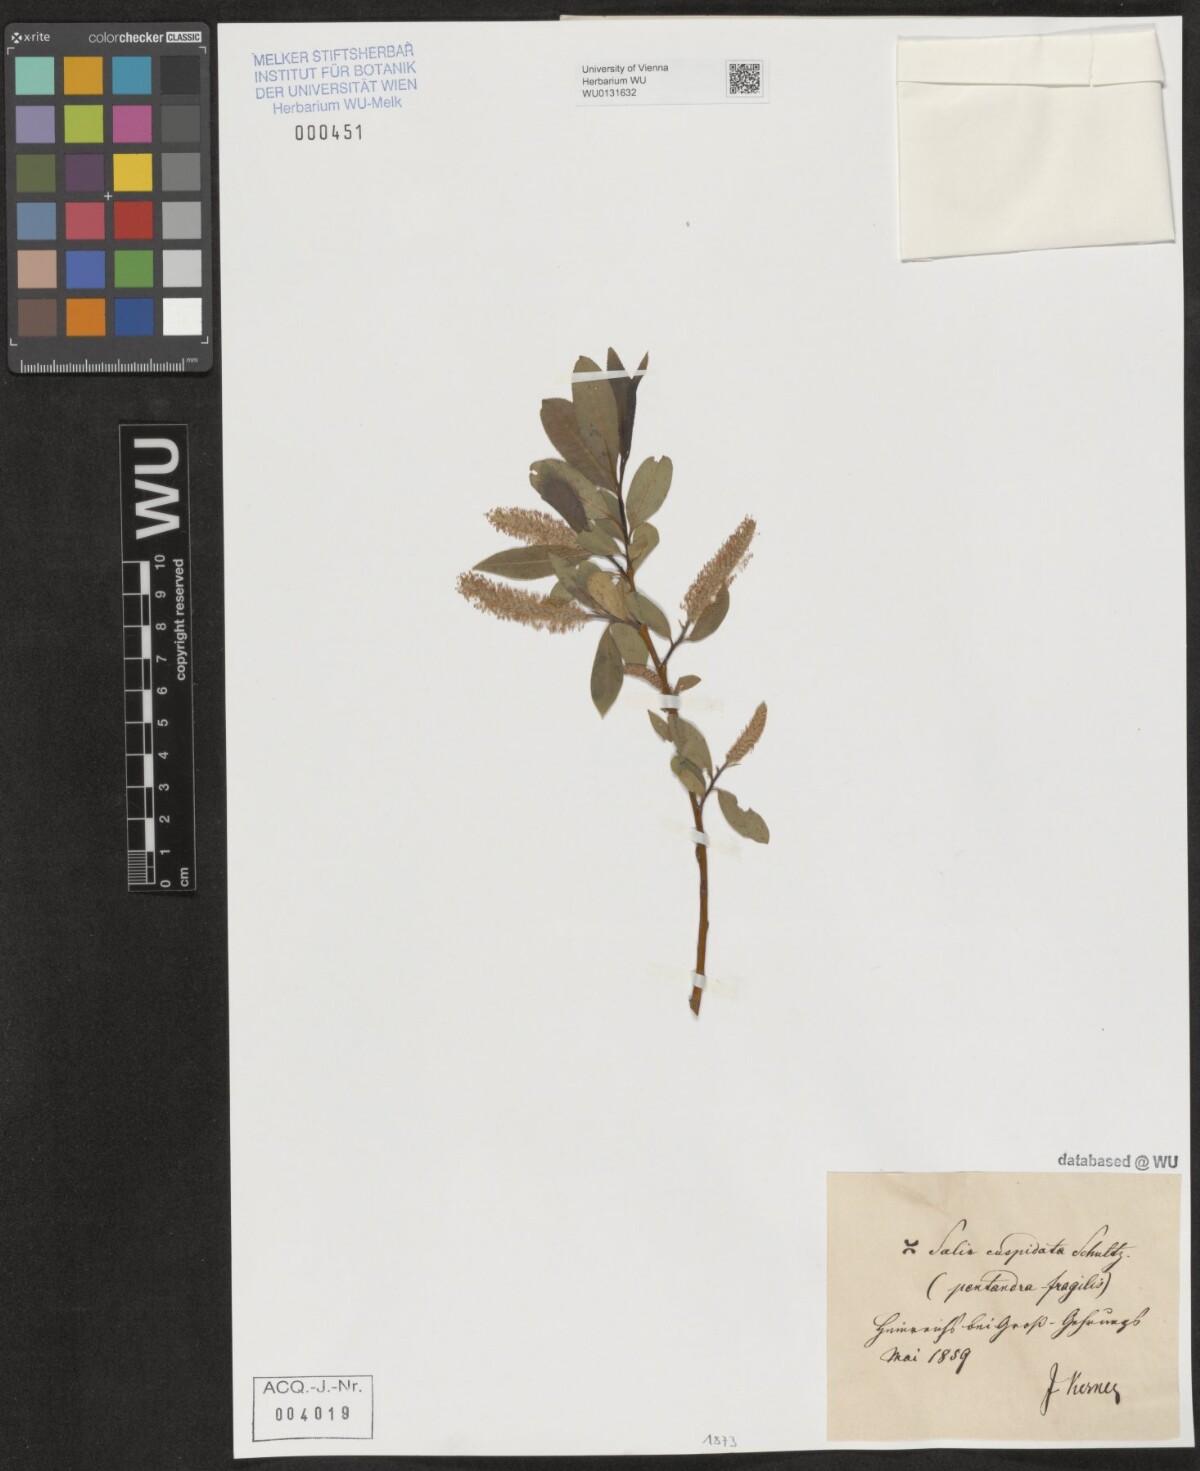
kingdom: Plantae
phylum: Tracheophyta
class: Magnoliopsida
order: Malpighiales
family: Salicaceae
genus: Salix
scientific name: Salix
